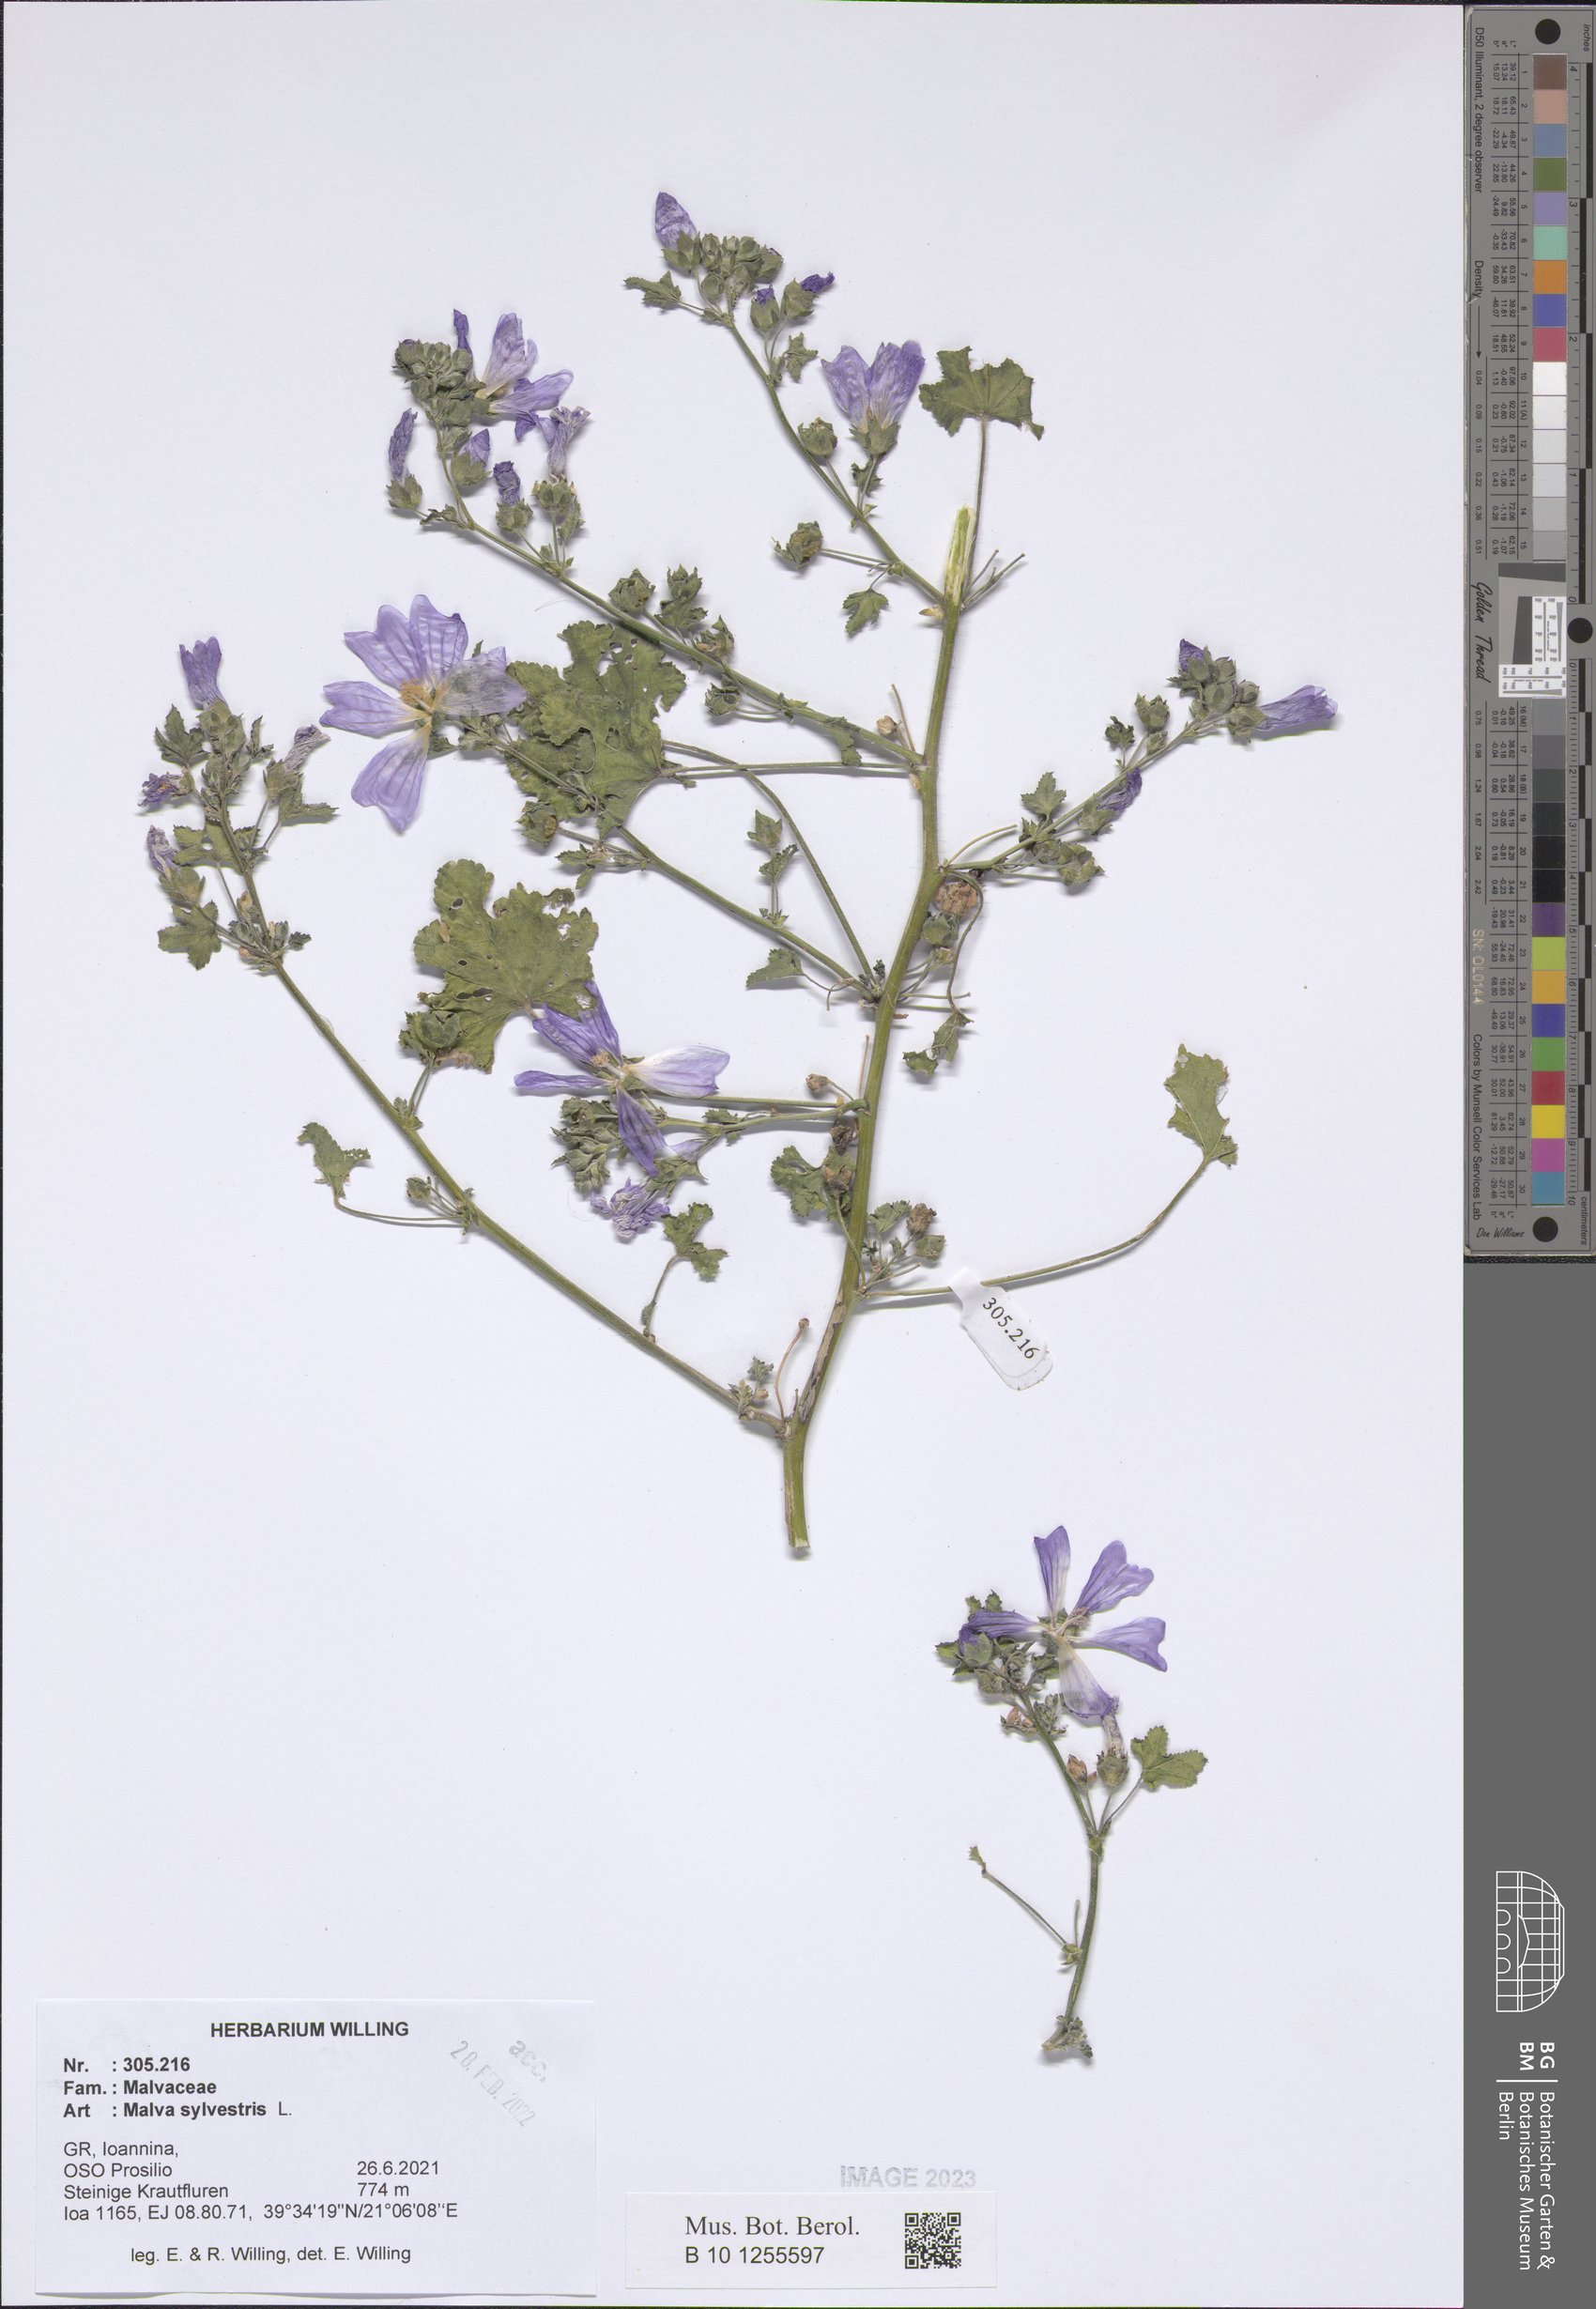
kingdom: Plantae
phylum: Tracheophyta
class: Magnoliopsida
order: Malvales
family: Malvaceae
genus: Malva
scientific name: Malva sylvestris
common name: Common mallow
